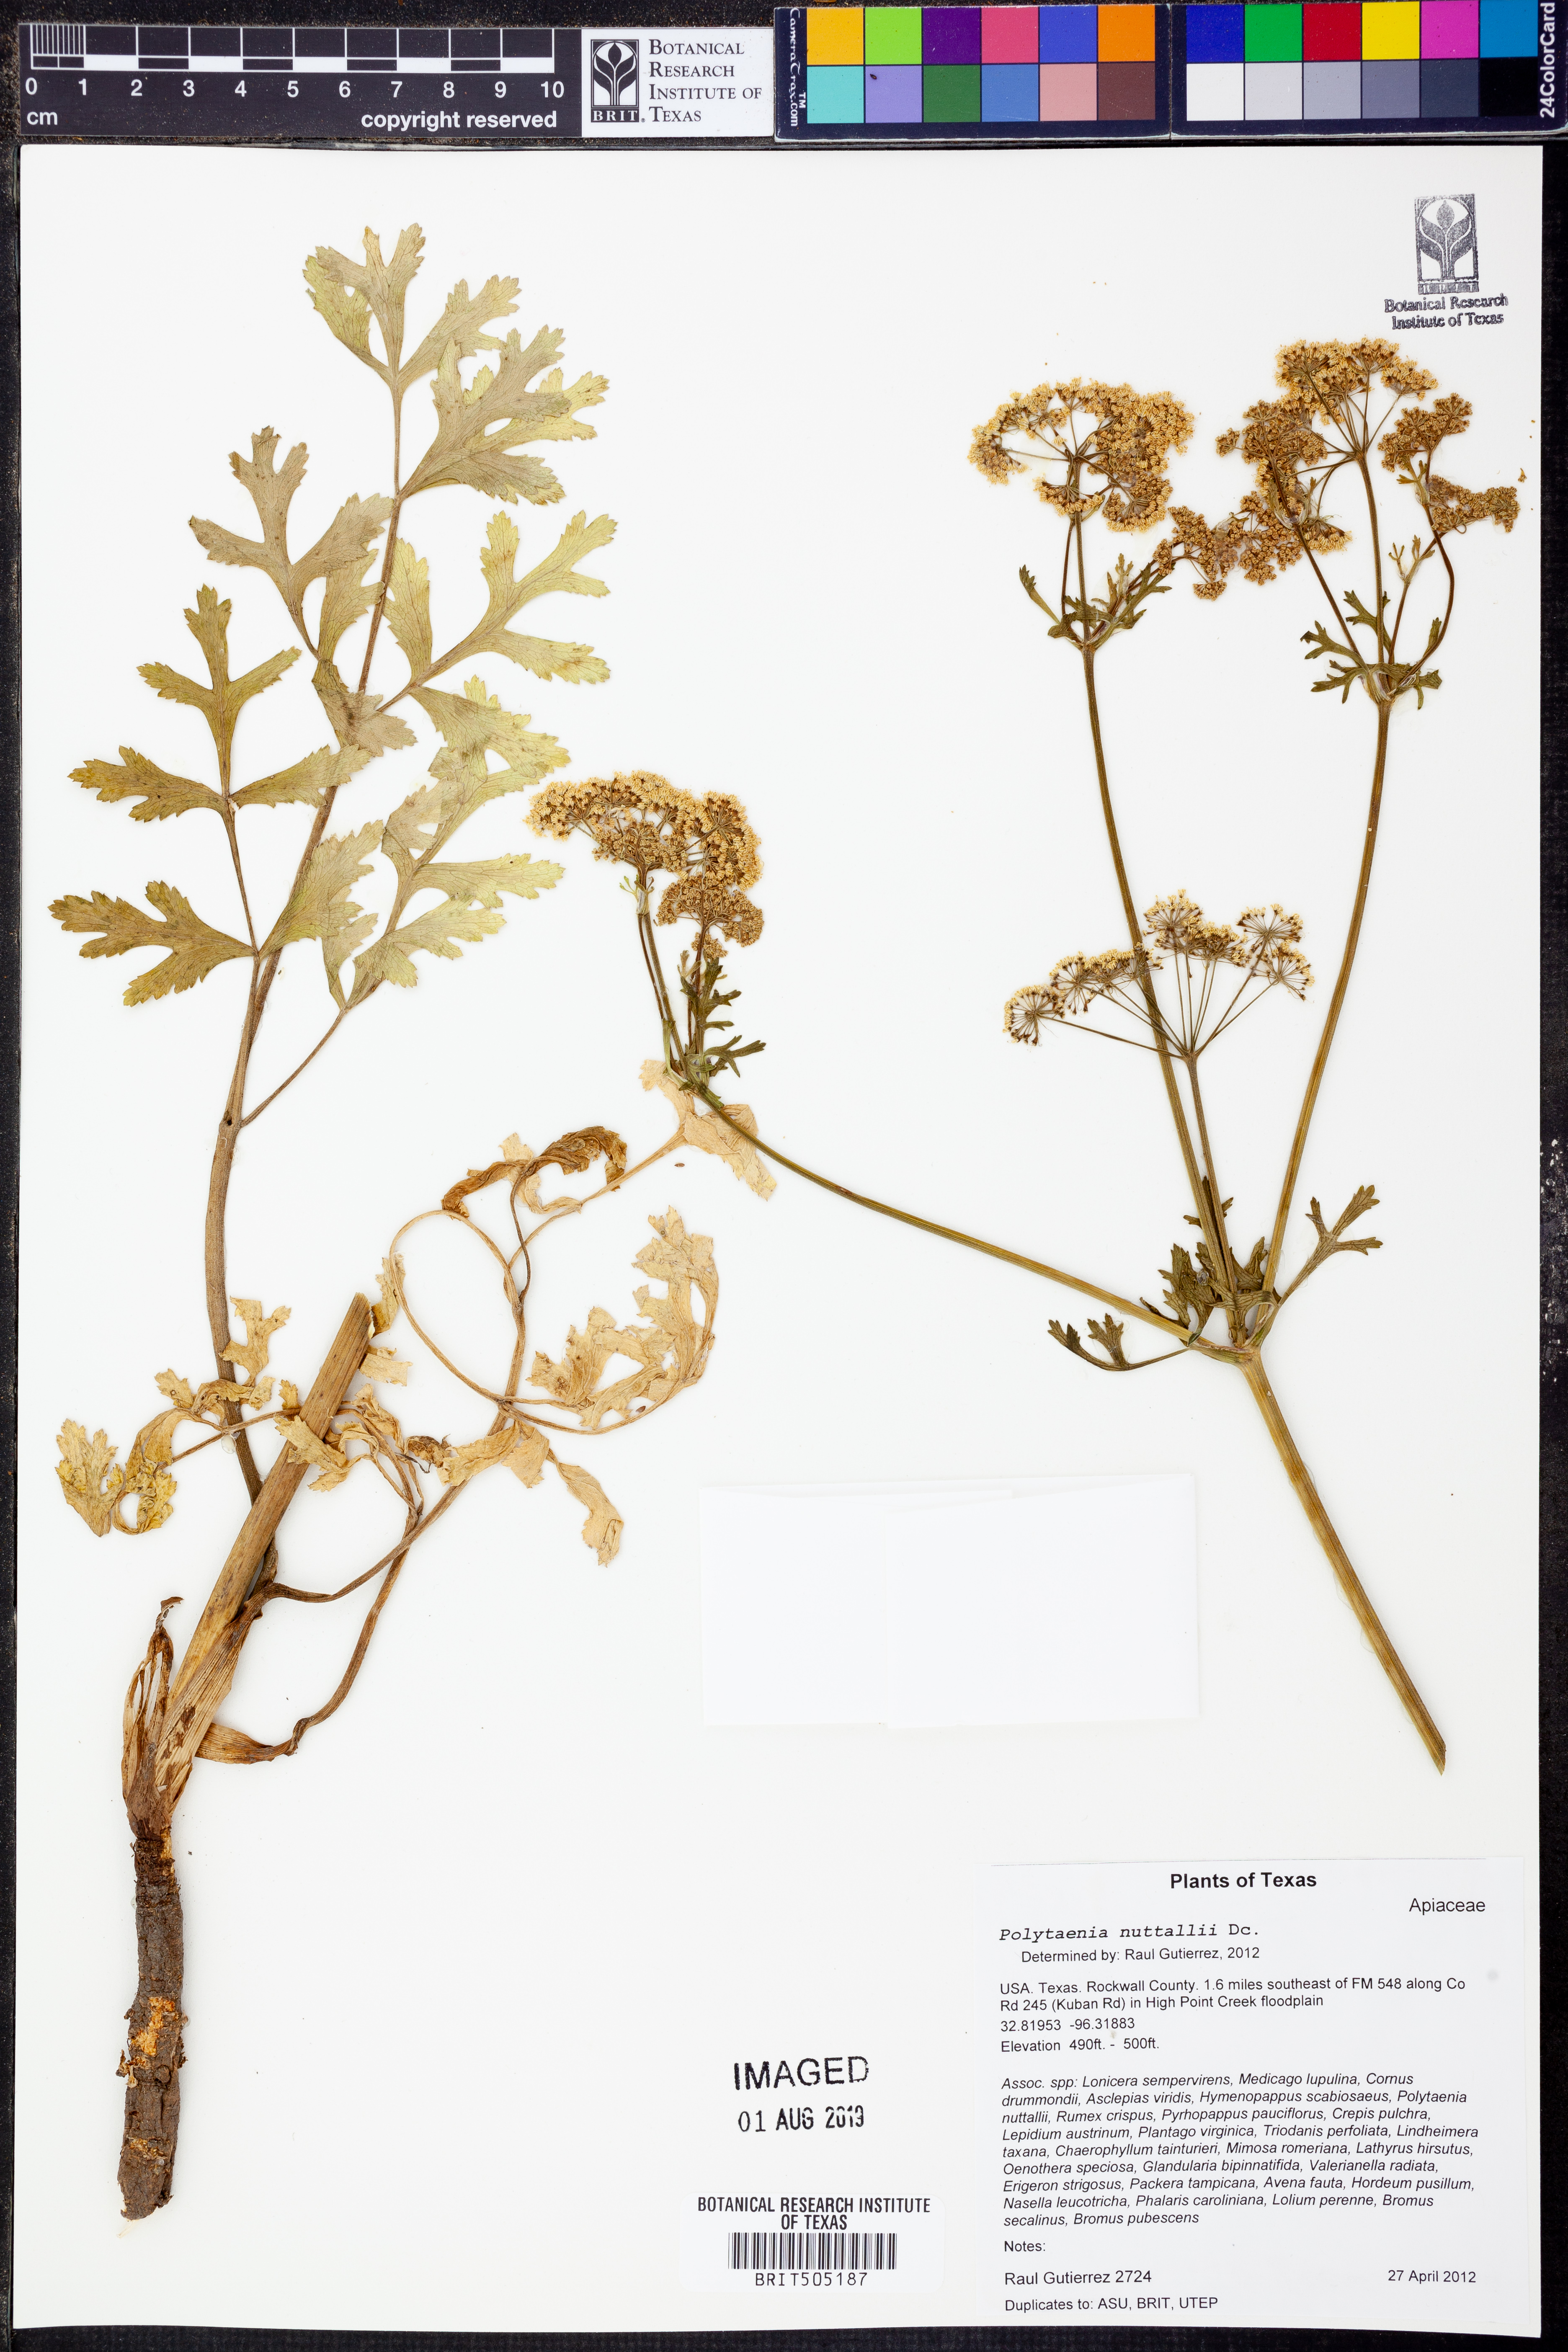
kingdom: Plantae
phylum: Tracheophyta
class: Magnoliopsida
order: Apiales
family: Apiaceae
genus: Polytaenia
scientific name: Polytaenia nuttallii
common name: Prairie-parsley
